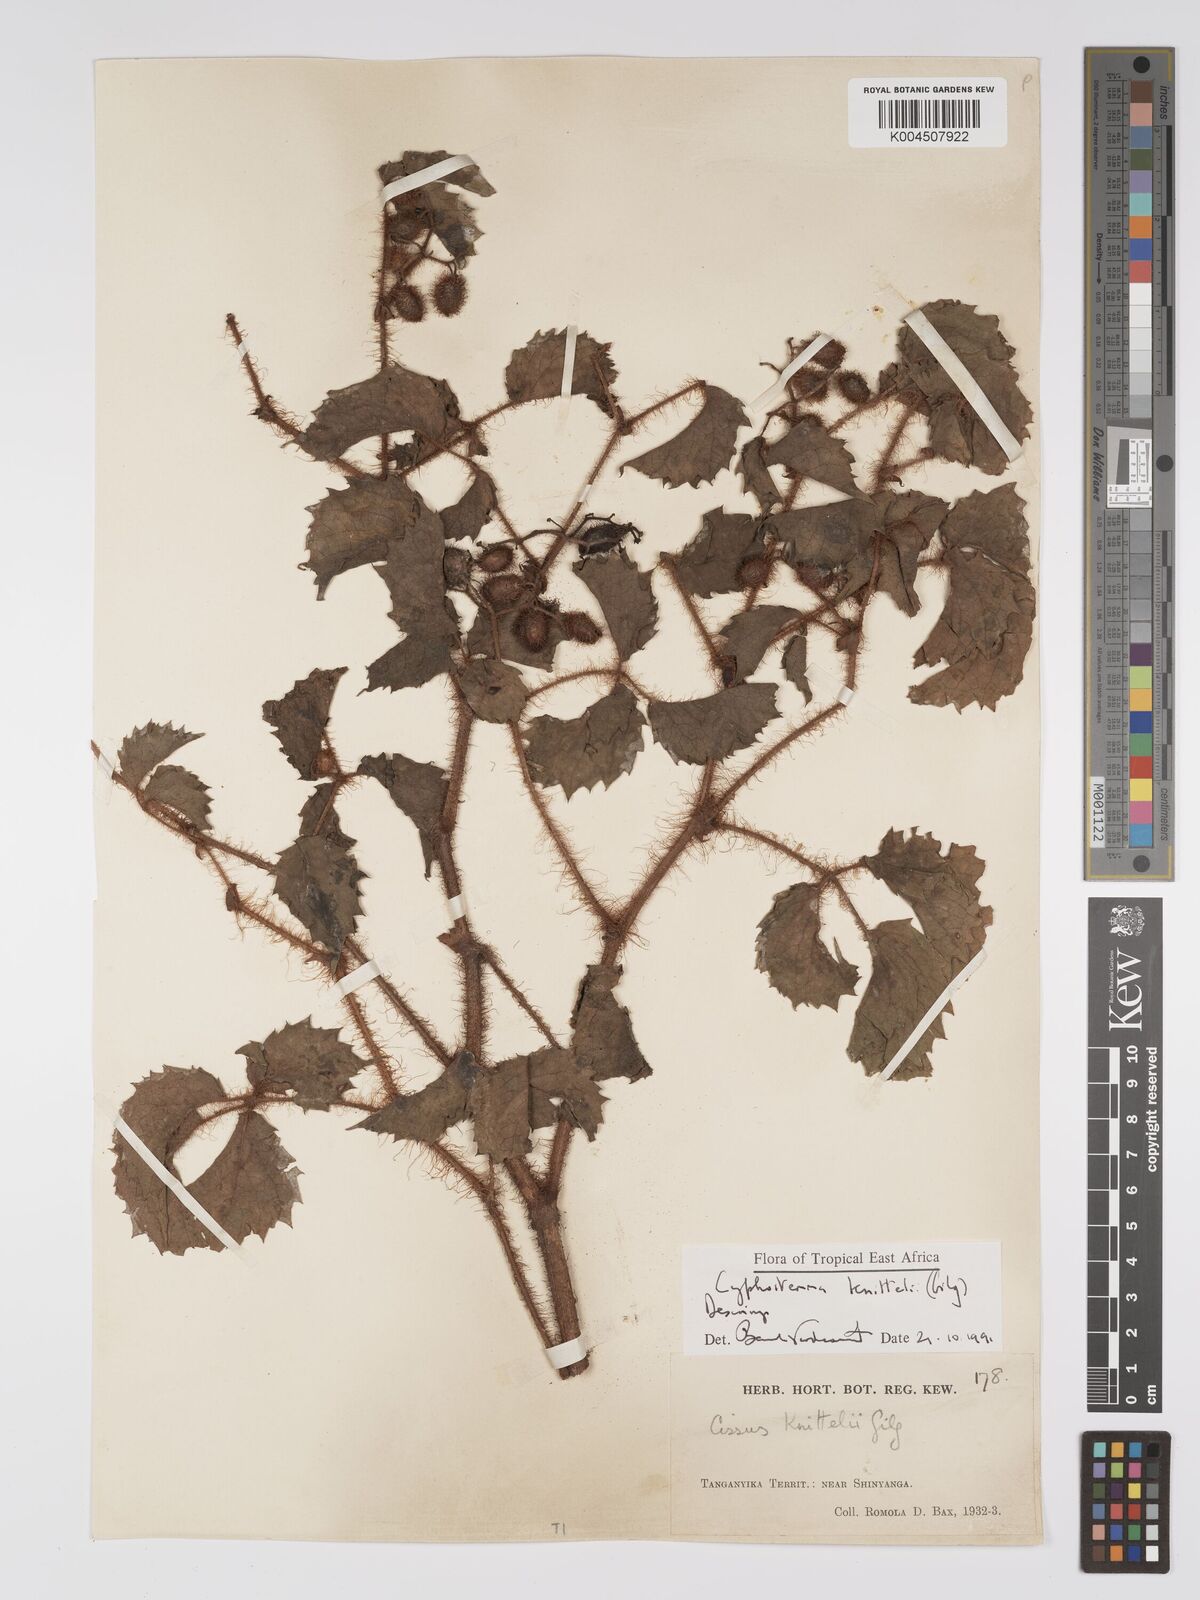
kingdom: Plantae
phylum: Tracheophyta
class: Magnoliopsida
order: Vitales
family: Vitaceae
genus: Cyphostemma
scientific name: Cyphostemma knittelii
